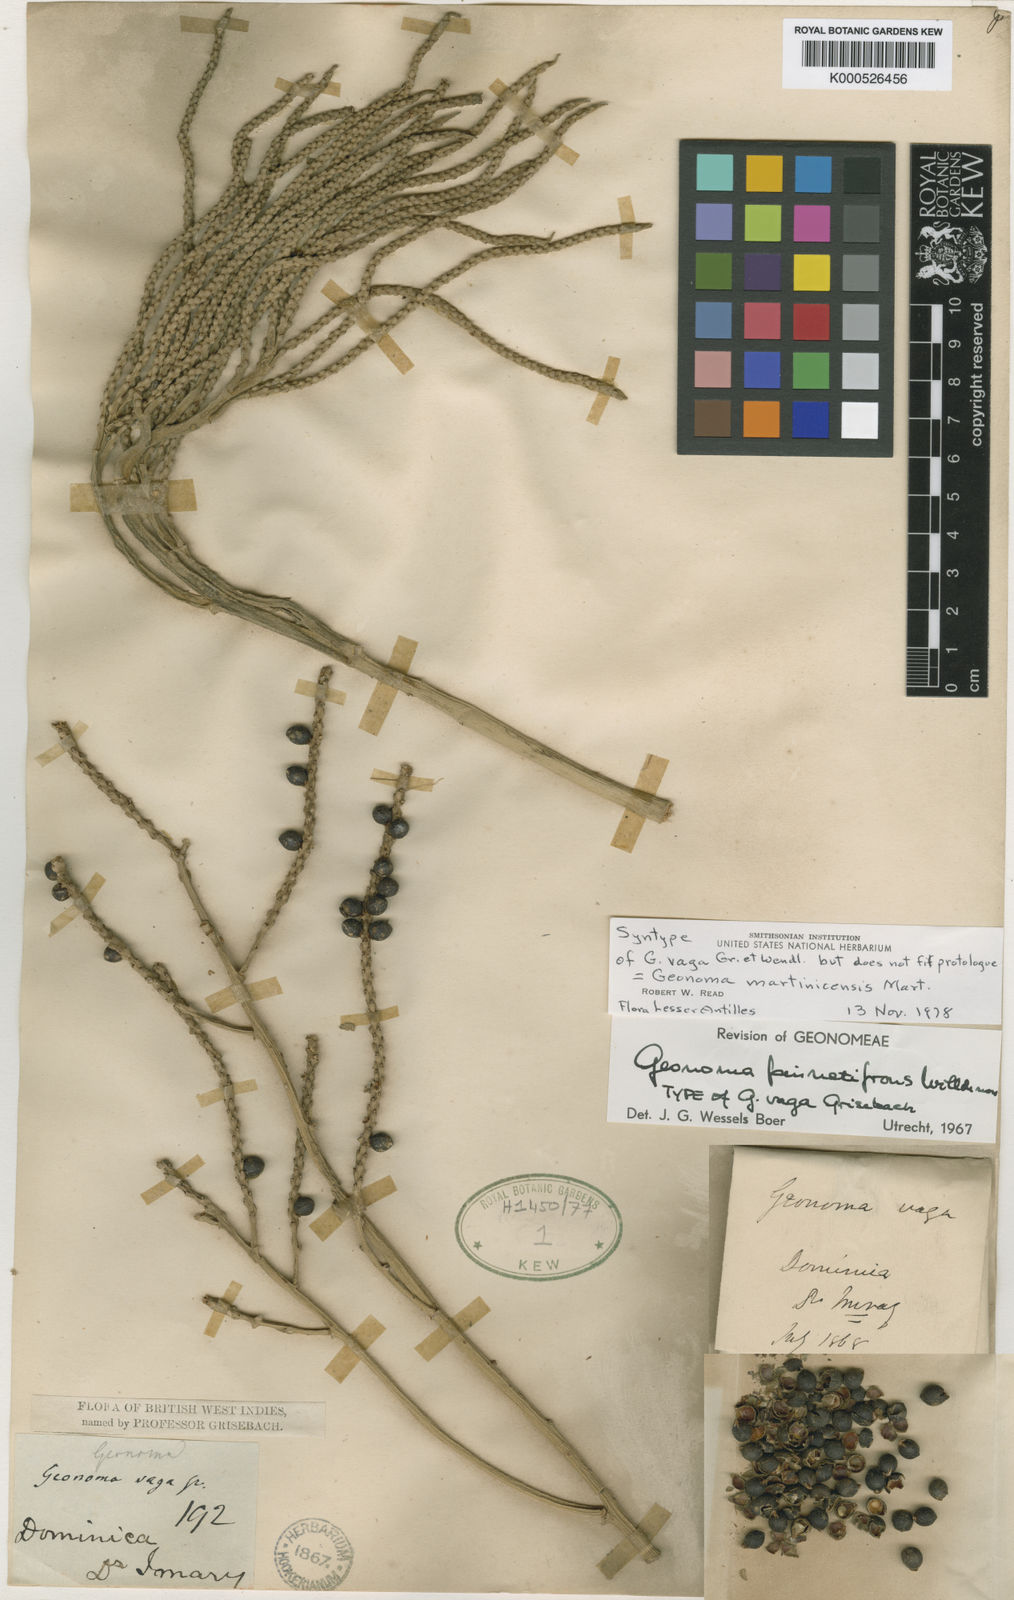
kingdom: Plantae
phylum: Tracheophyta
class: Liliopsida
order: Arecales
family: Arecaceae
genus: Geonoma
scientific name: Geonoma pinnatifrons
